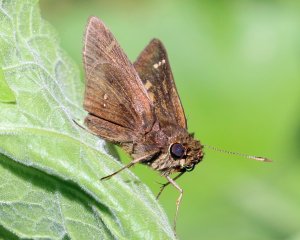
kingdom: Animalia
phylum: Arthropoda
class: Insecta
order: Lepidoptera
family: Hesperiidae
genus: Decinea
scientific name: Decinea percosius
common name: Double-dotted Skipper
